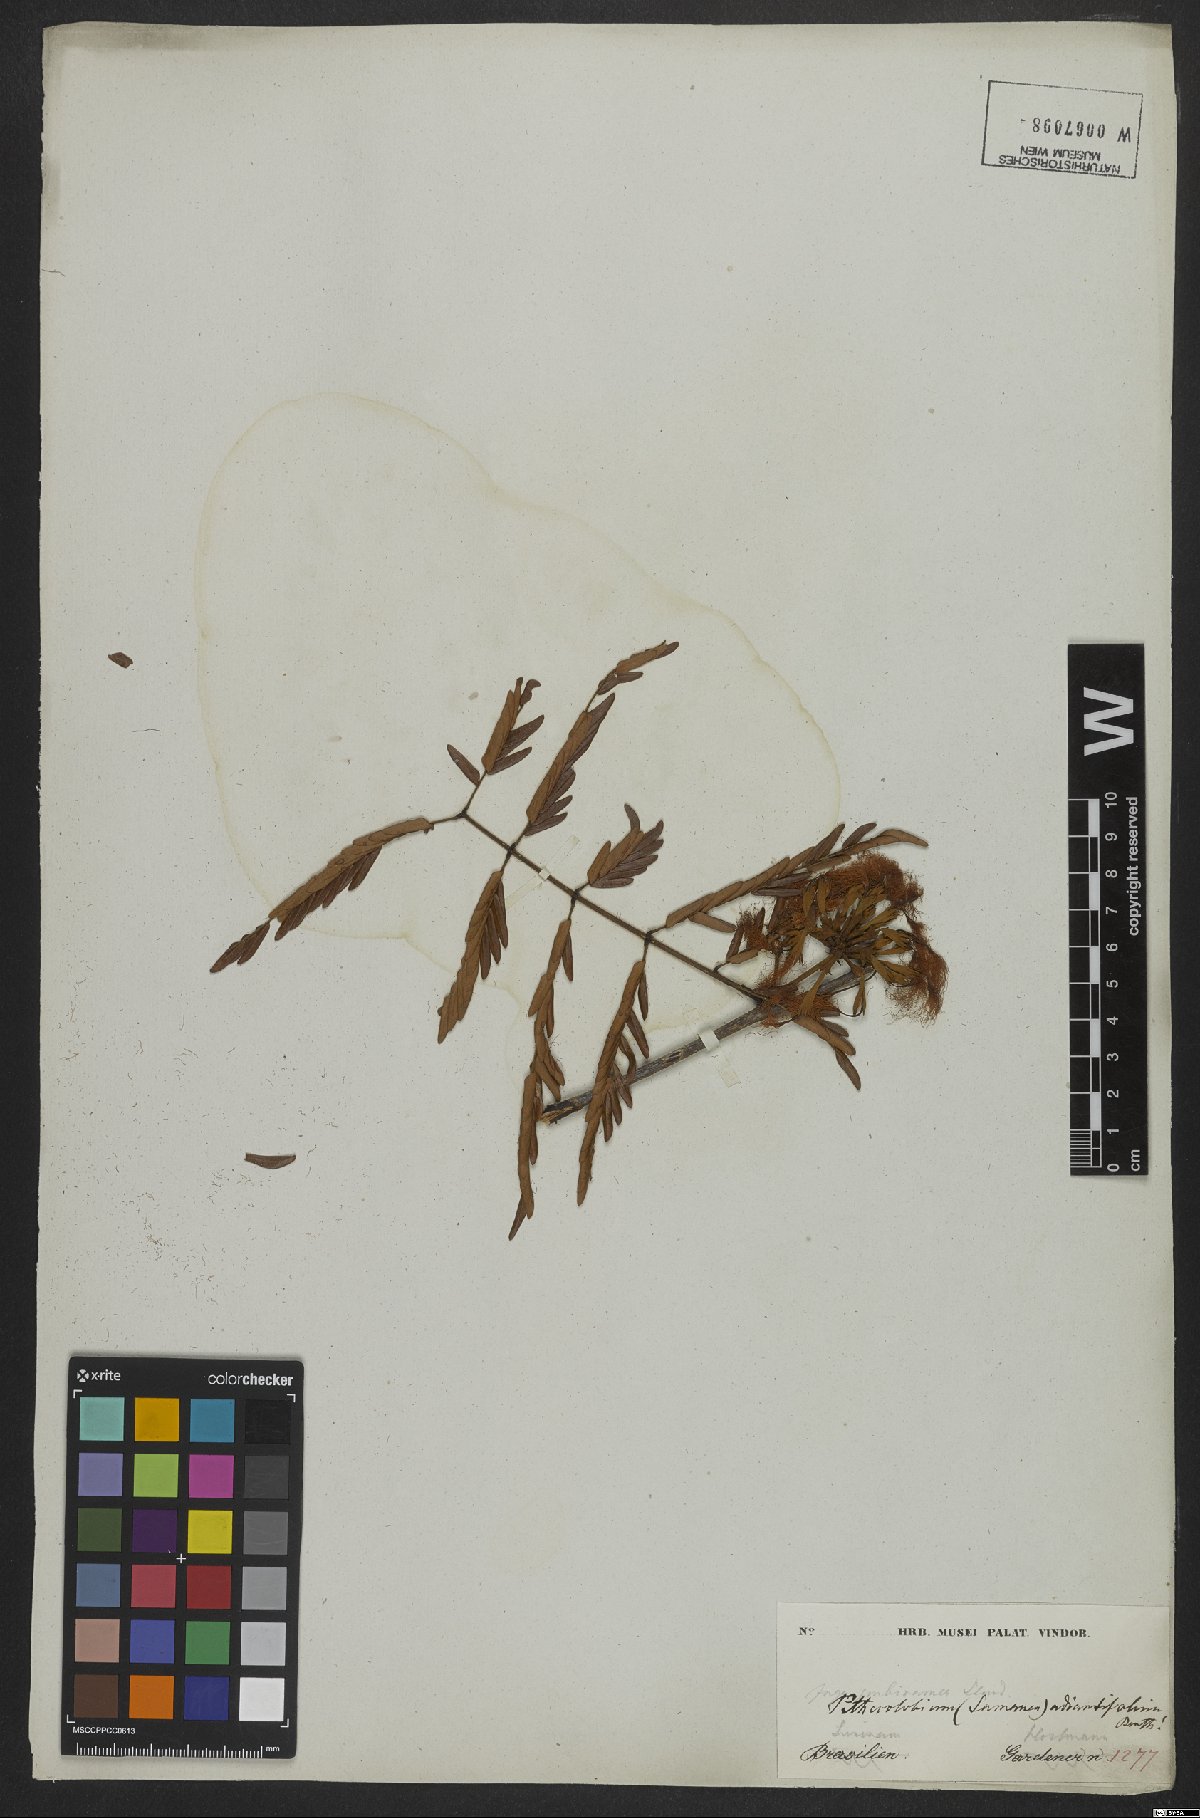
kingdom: Plantae
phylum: Tracheophyta
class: Magnoliopsida
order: Fabales
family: Fabaceae
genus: Macrosamanea
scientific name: Macrosamanea discolor
